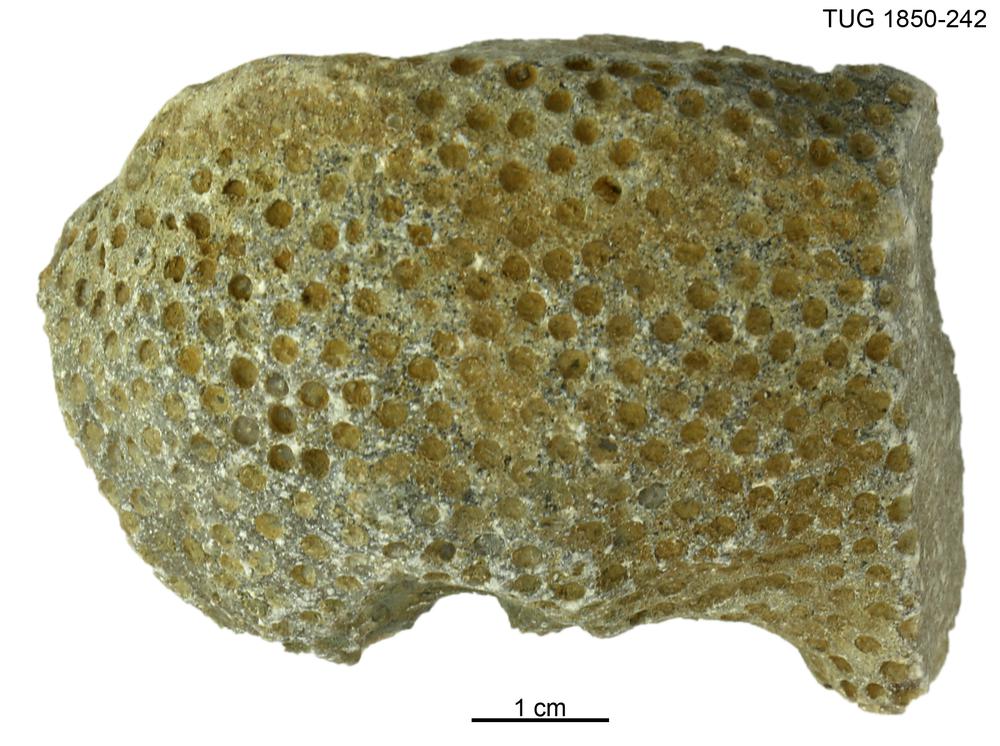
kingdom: Animalia
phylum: Cnidaria
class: Anthozoa
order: Heliolitina
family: Heliolitidae
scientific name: Heliolitidae
